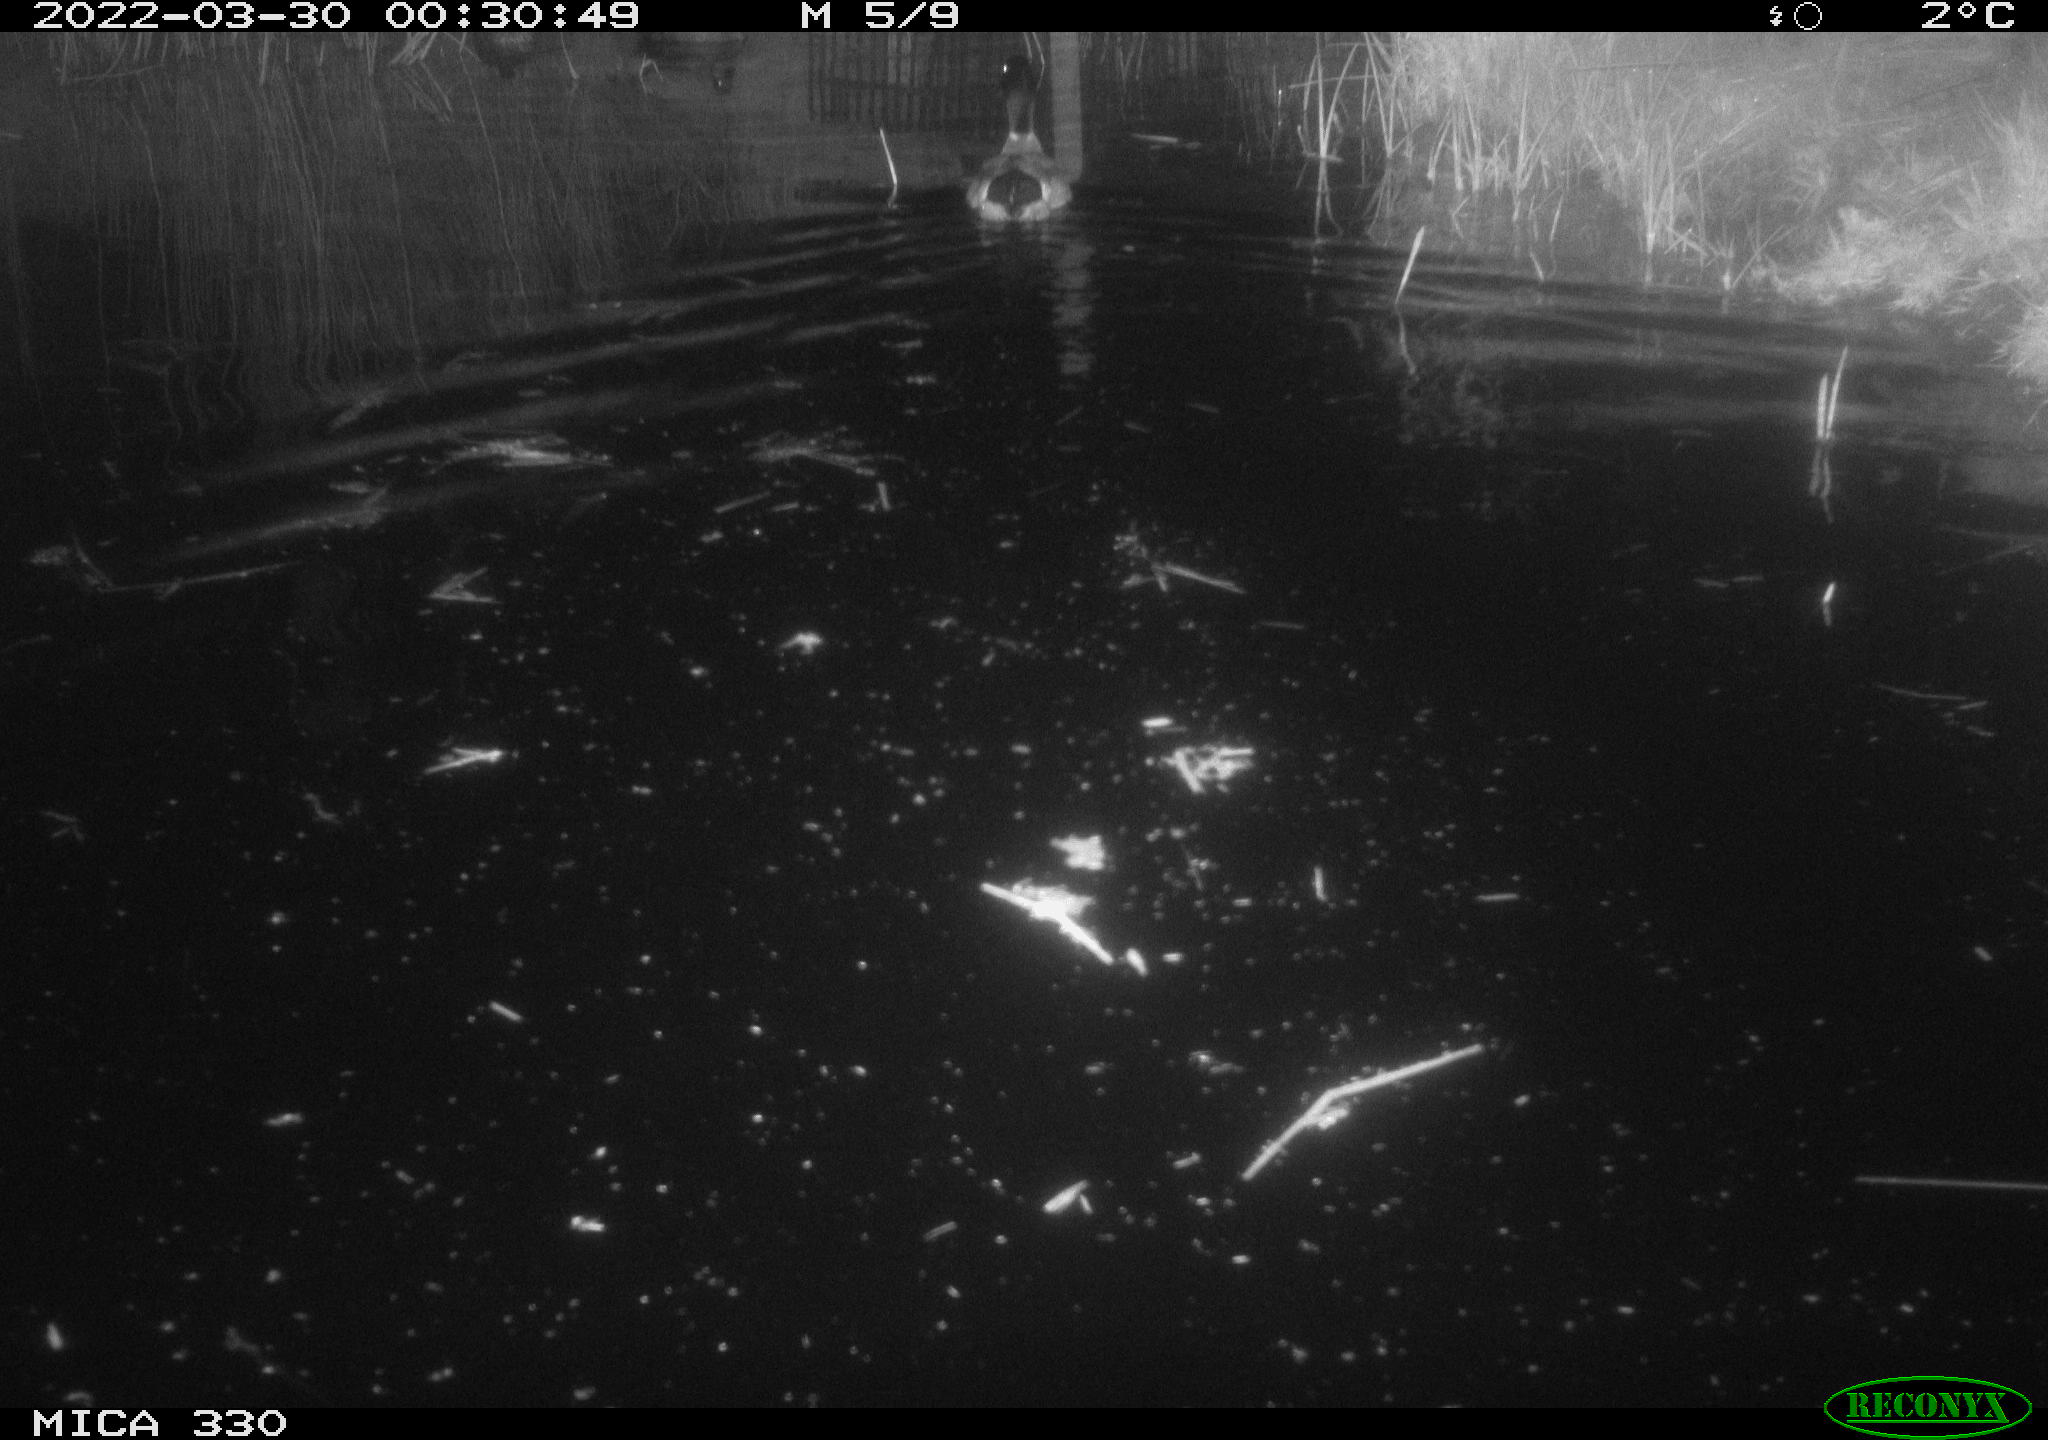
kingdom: Animalia
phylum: Chordata
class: Aves
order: Anseriformes
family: Anatidae
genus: Anas
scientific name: Anas platyrhynchos
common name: Mallard
